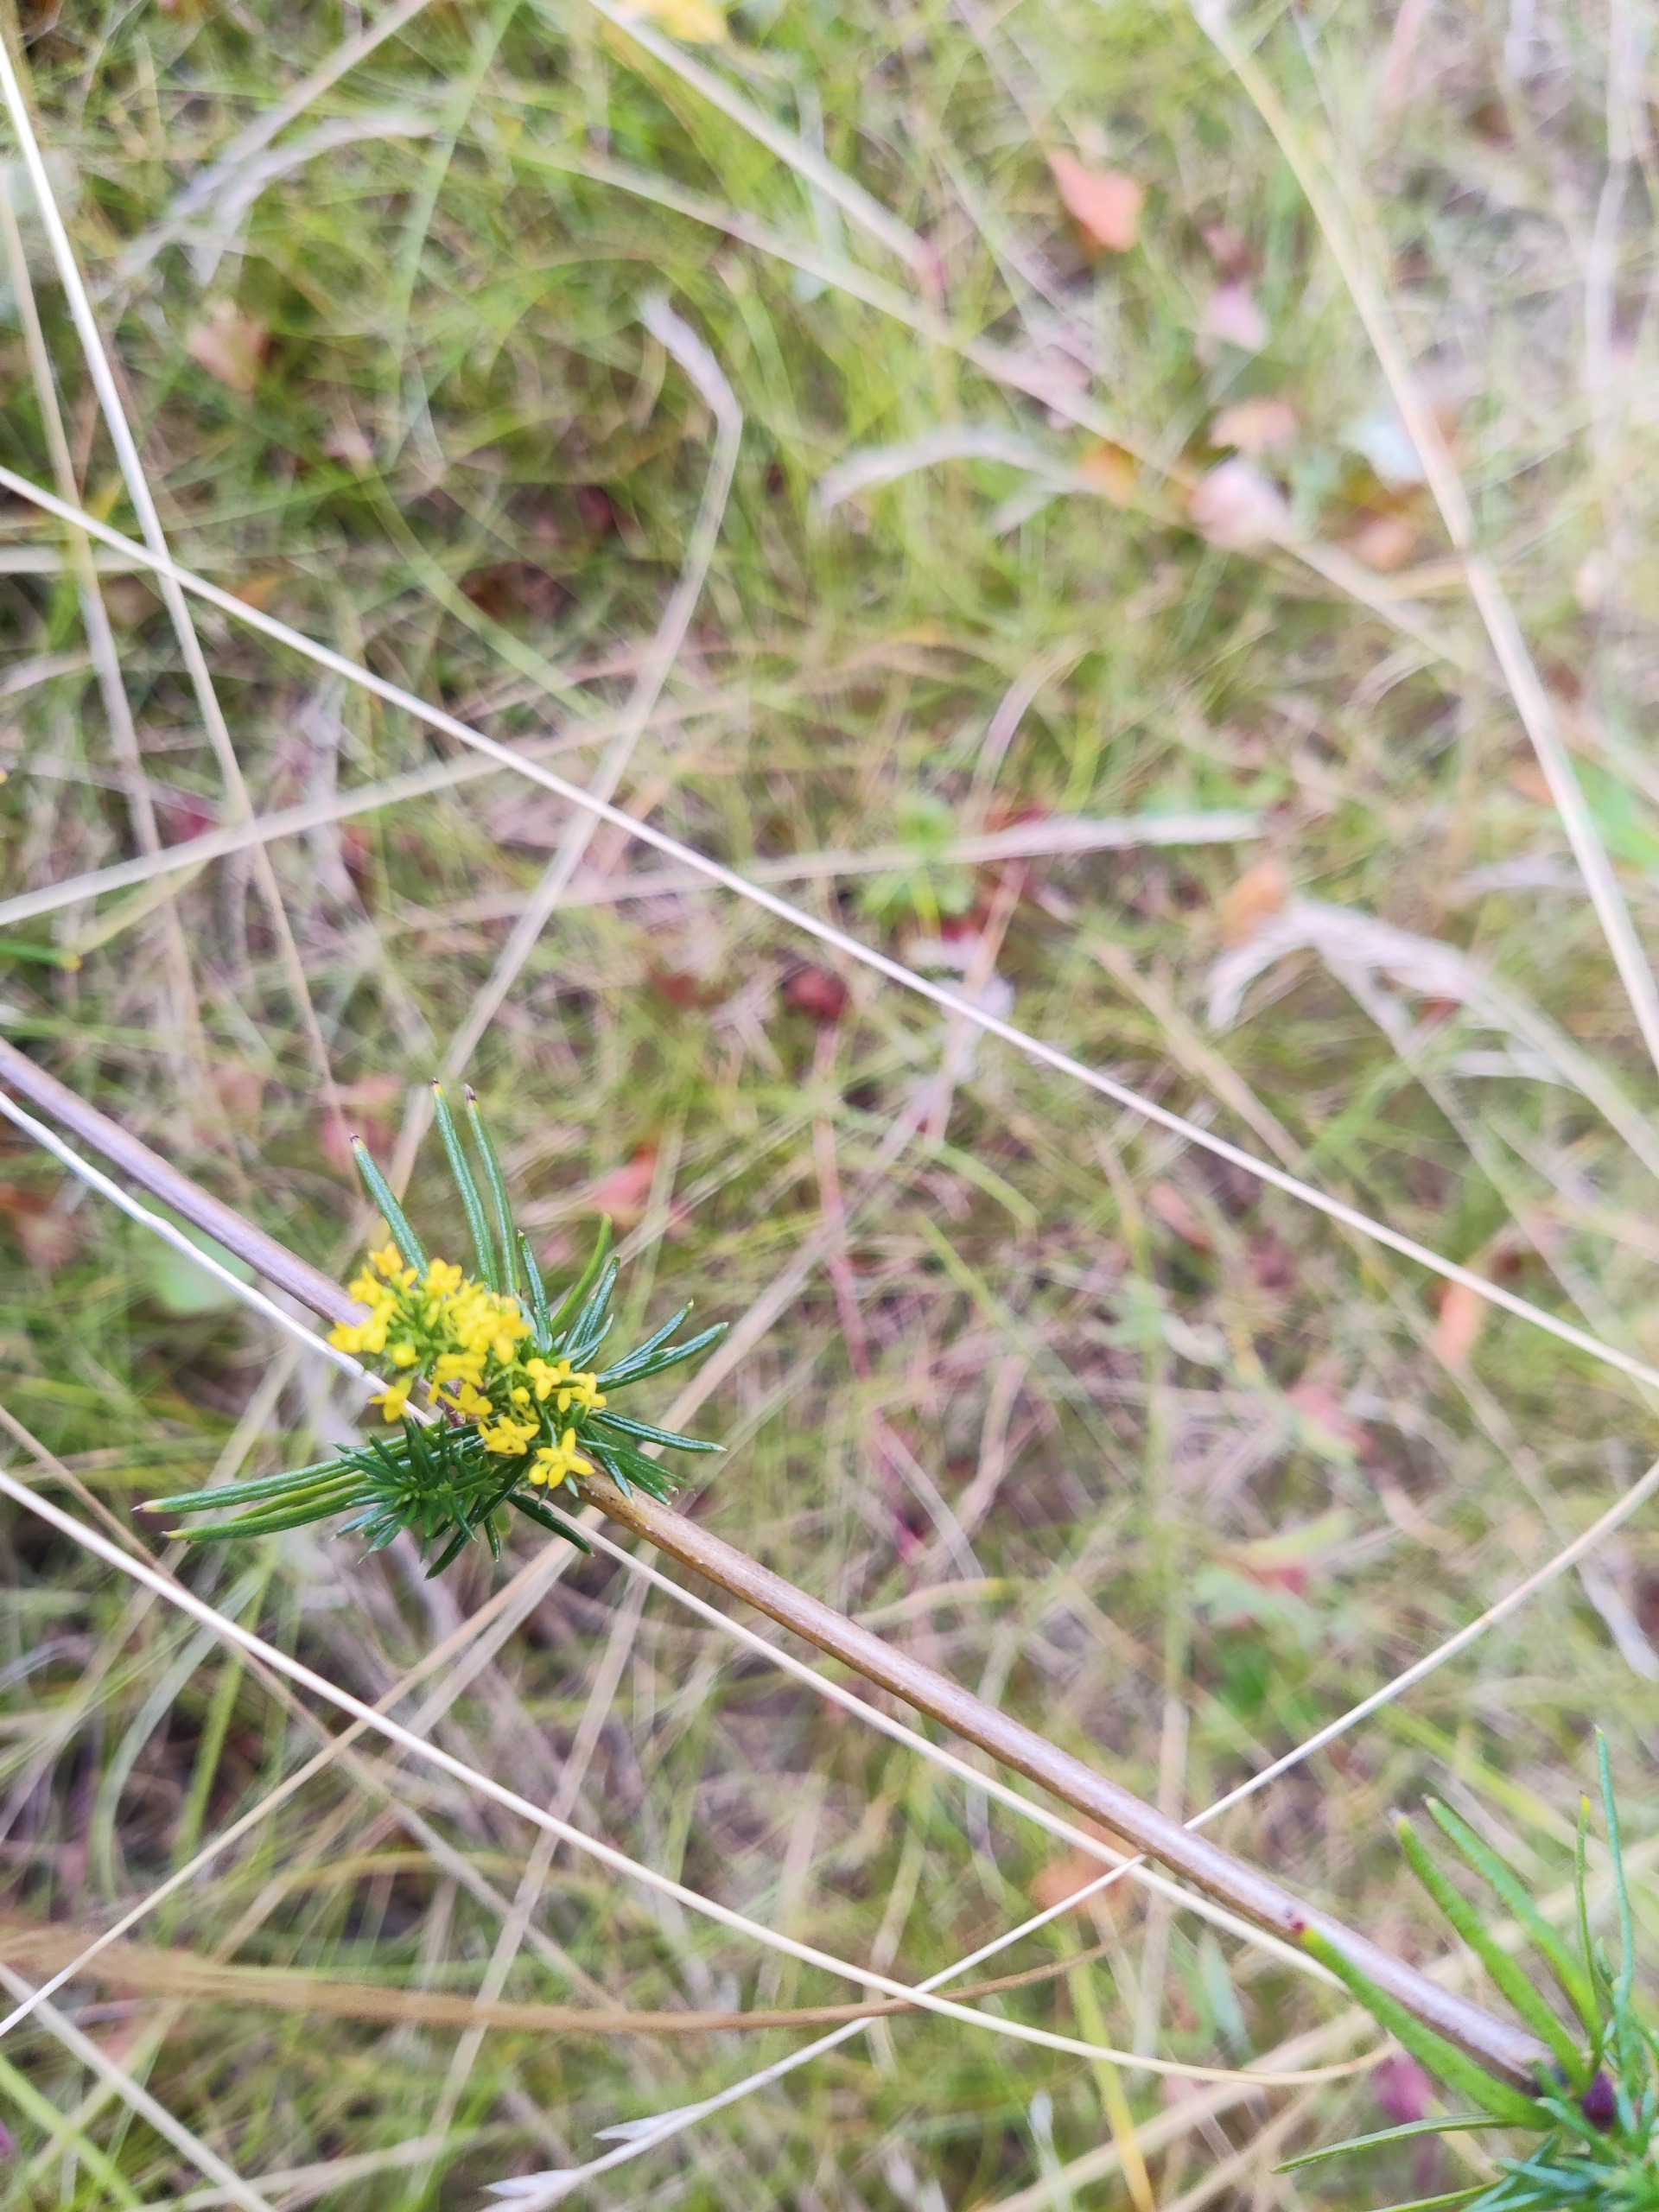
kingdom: Plantae
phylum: Tracheophyta
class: Magnoliopsida
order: Gentianales
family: Rubiaceae
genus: Galium
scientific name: Galium verum
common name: Gul snerre
